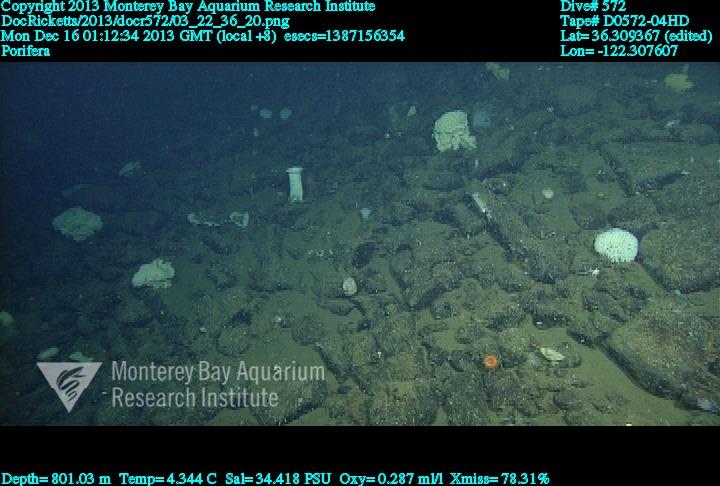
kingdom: Animalia
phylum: Porifera
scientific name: Porifera
